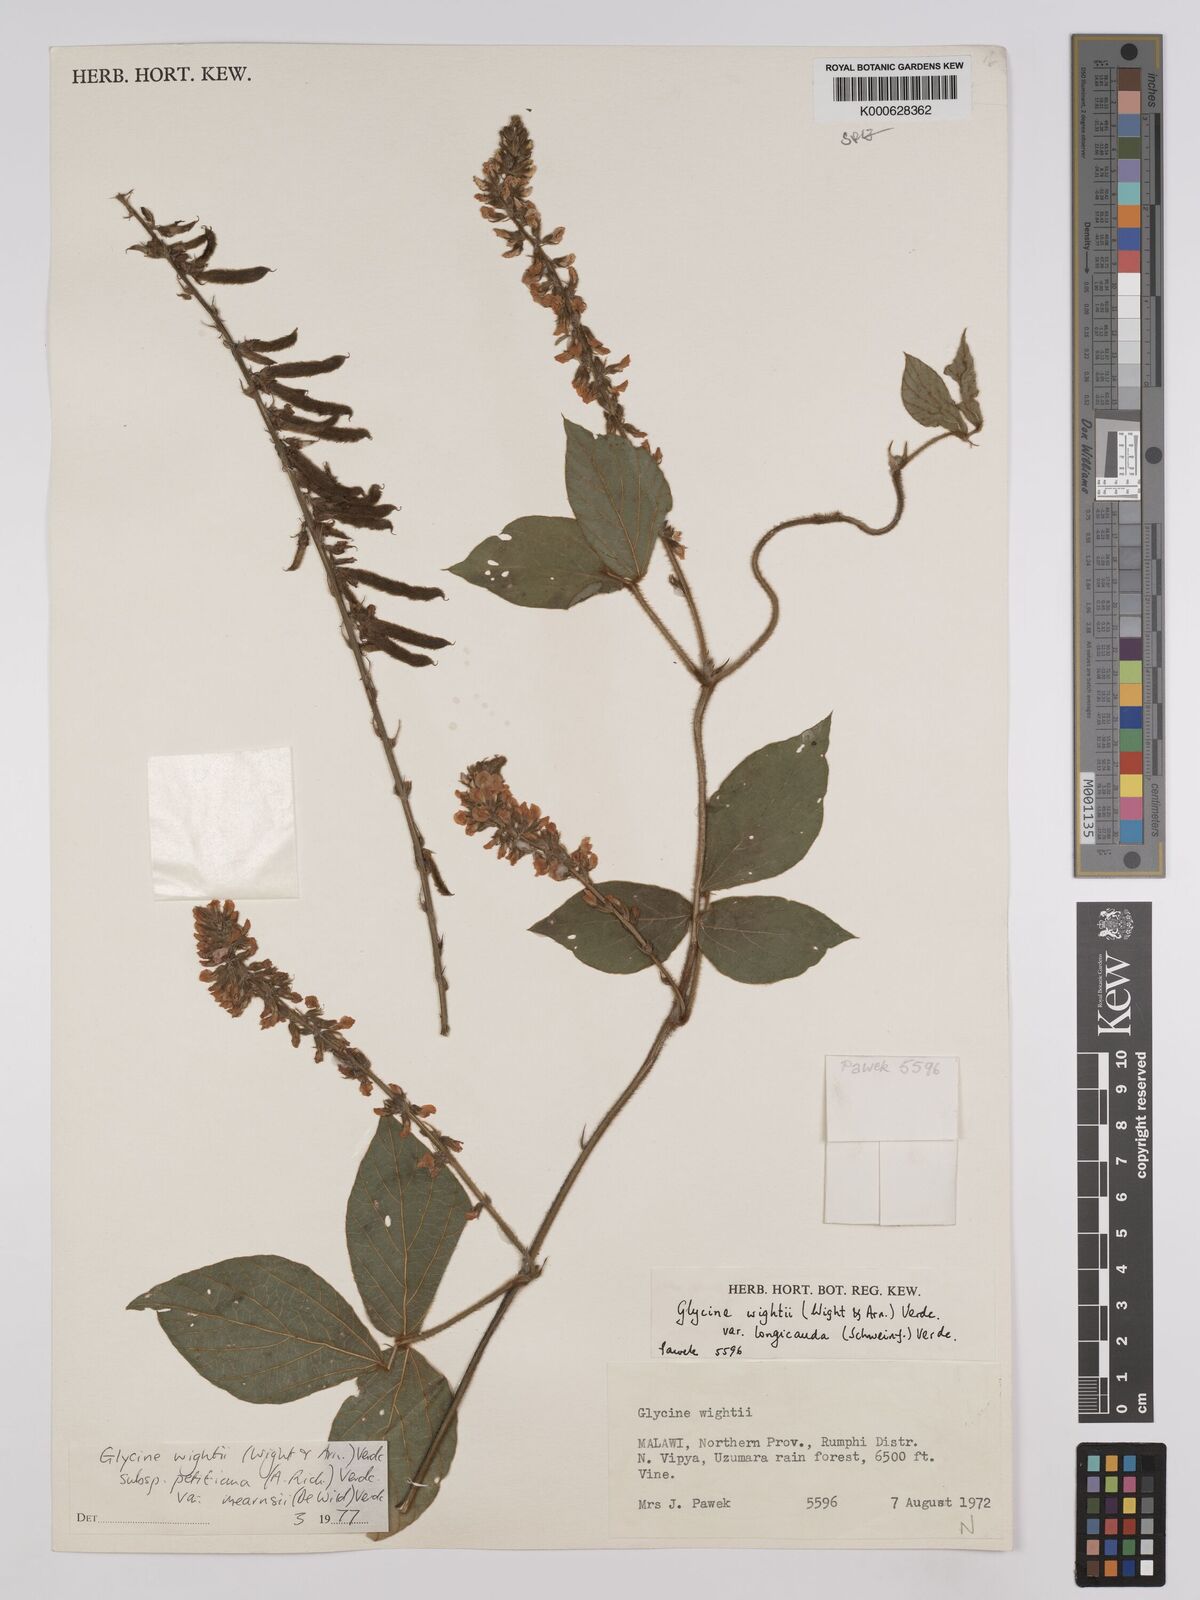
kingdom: Plantae
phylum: Tracheophyta
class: Magnoliopsida
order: Fabales
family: Fabaceae
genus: Glycine
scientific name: Glycine
